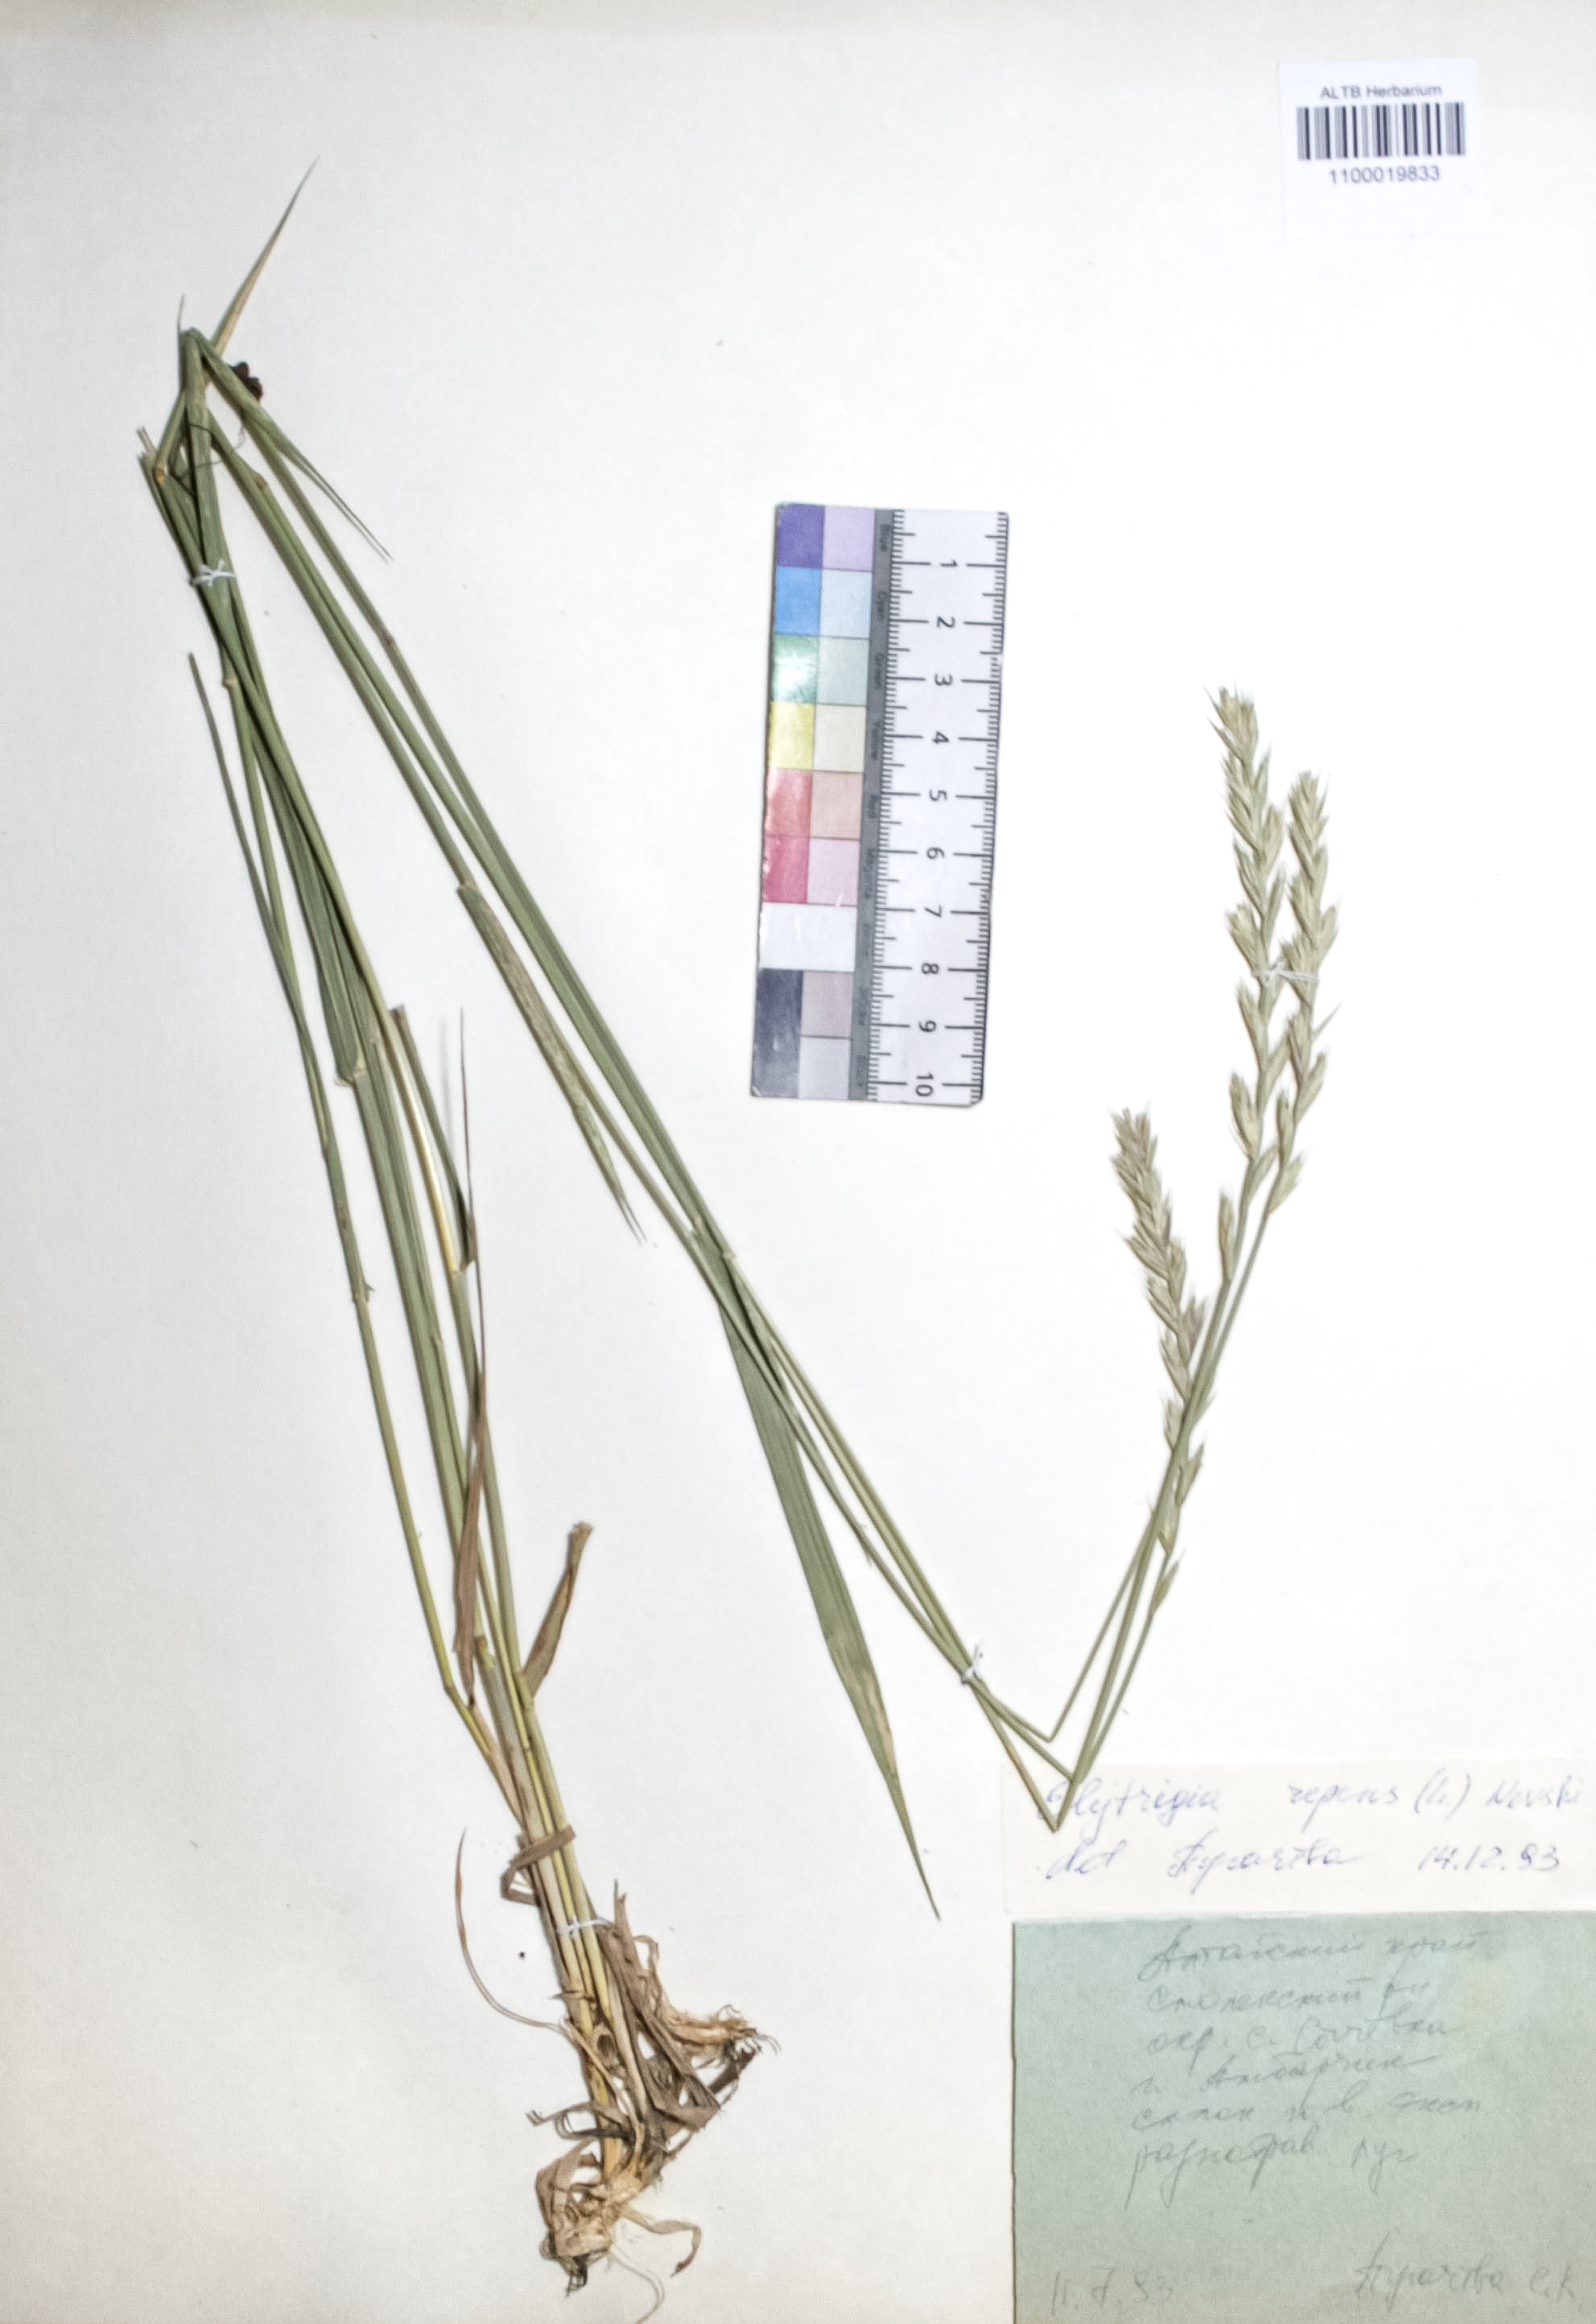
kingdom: Plantae
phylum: Tracheophyta
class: Liliopsida
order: Poales
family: Poaceae
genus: Elymus
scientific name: Elymus repens
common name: Quackgrass
